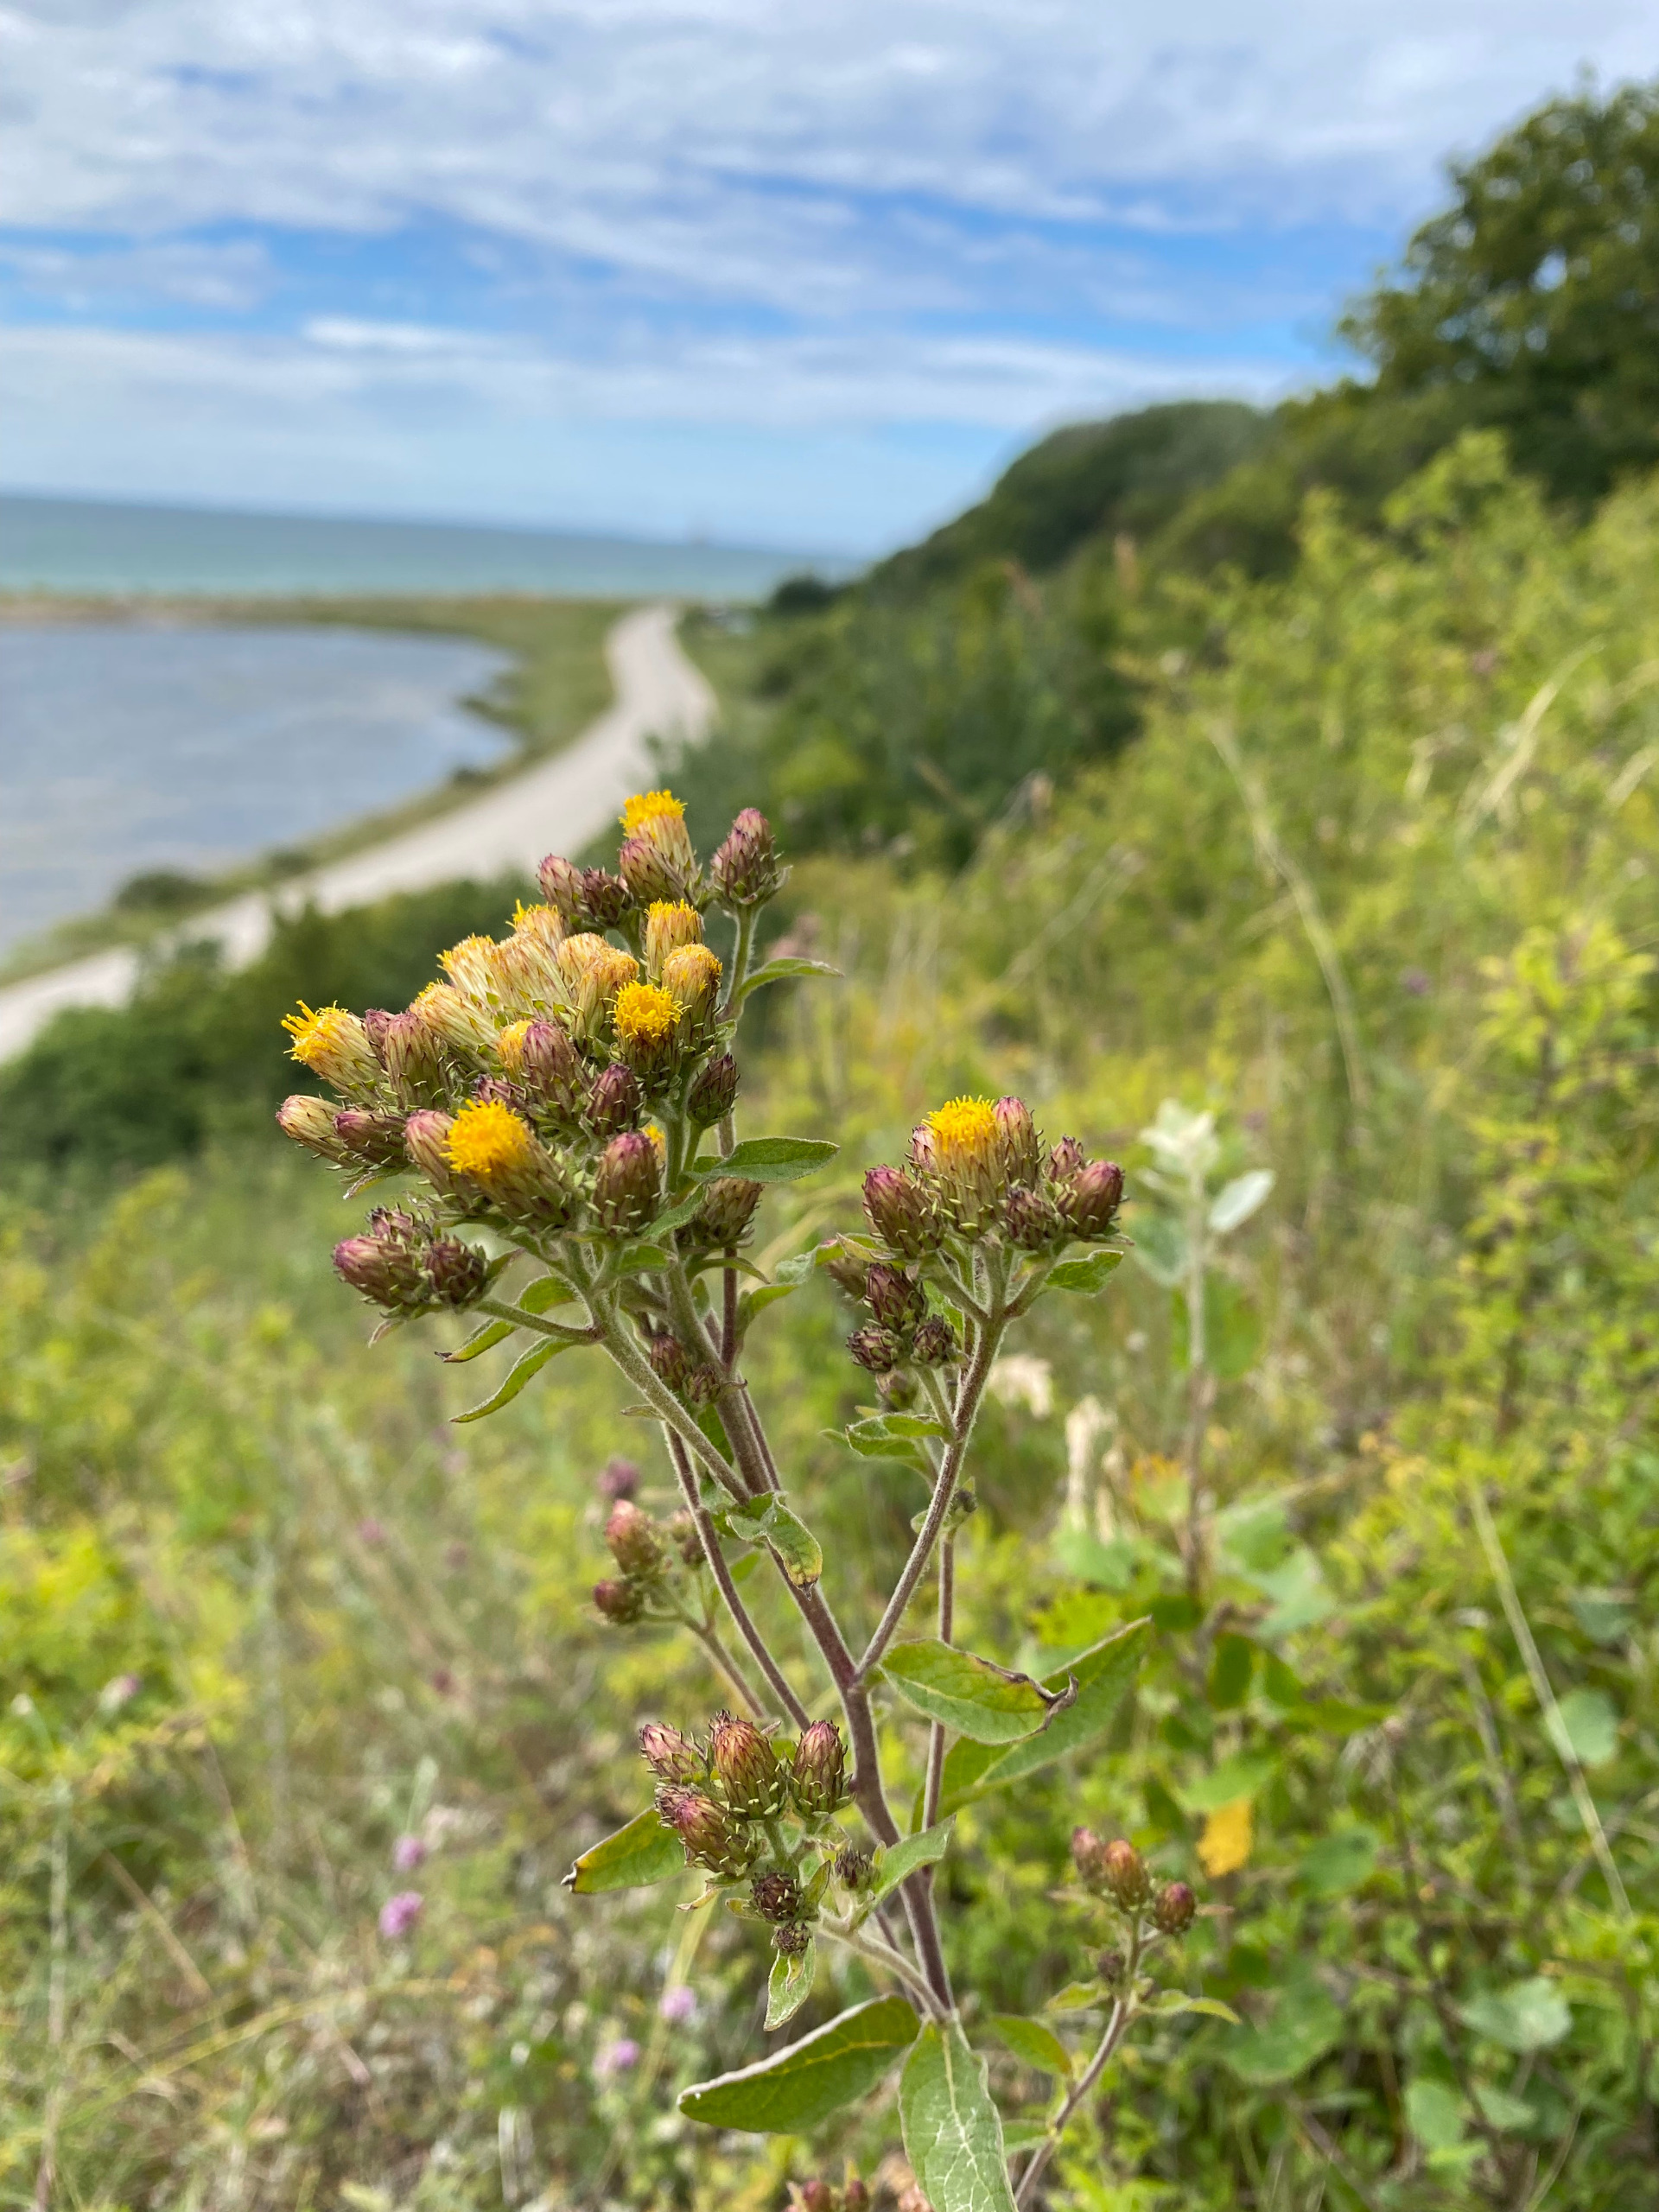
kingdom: Plantae
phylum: Tracheophyta
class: Magnoliopsida
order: Asterales
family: Asteraceae
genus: Pentanema
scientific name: Pentanema squarrosum
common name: Trekløft-alant
